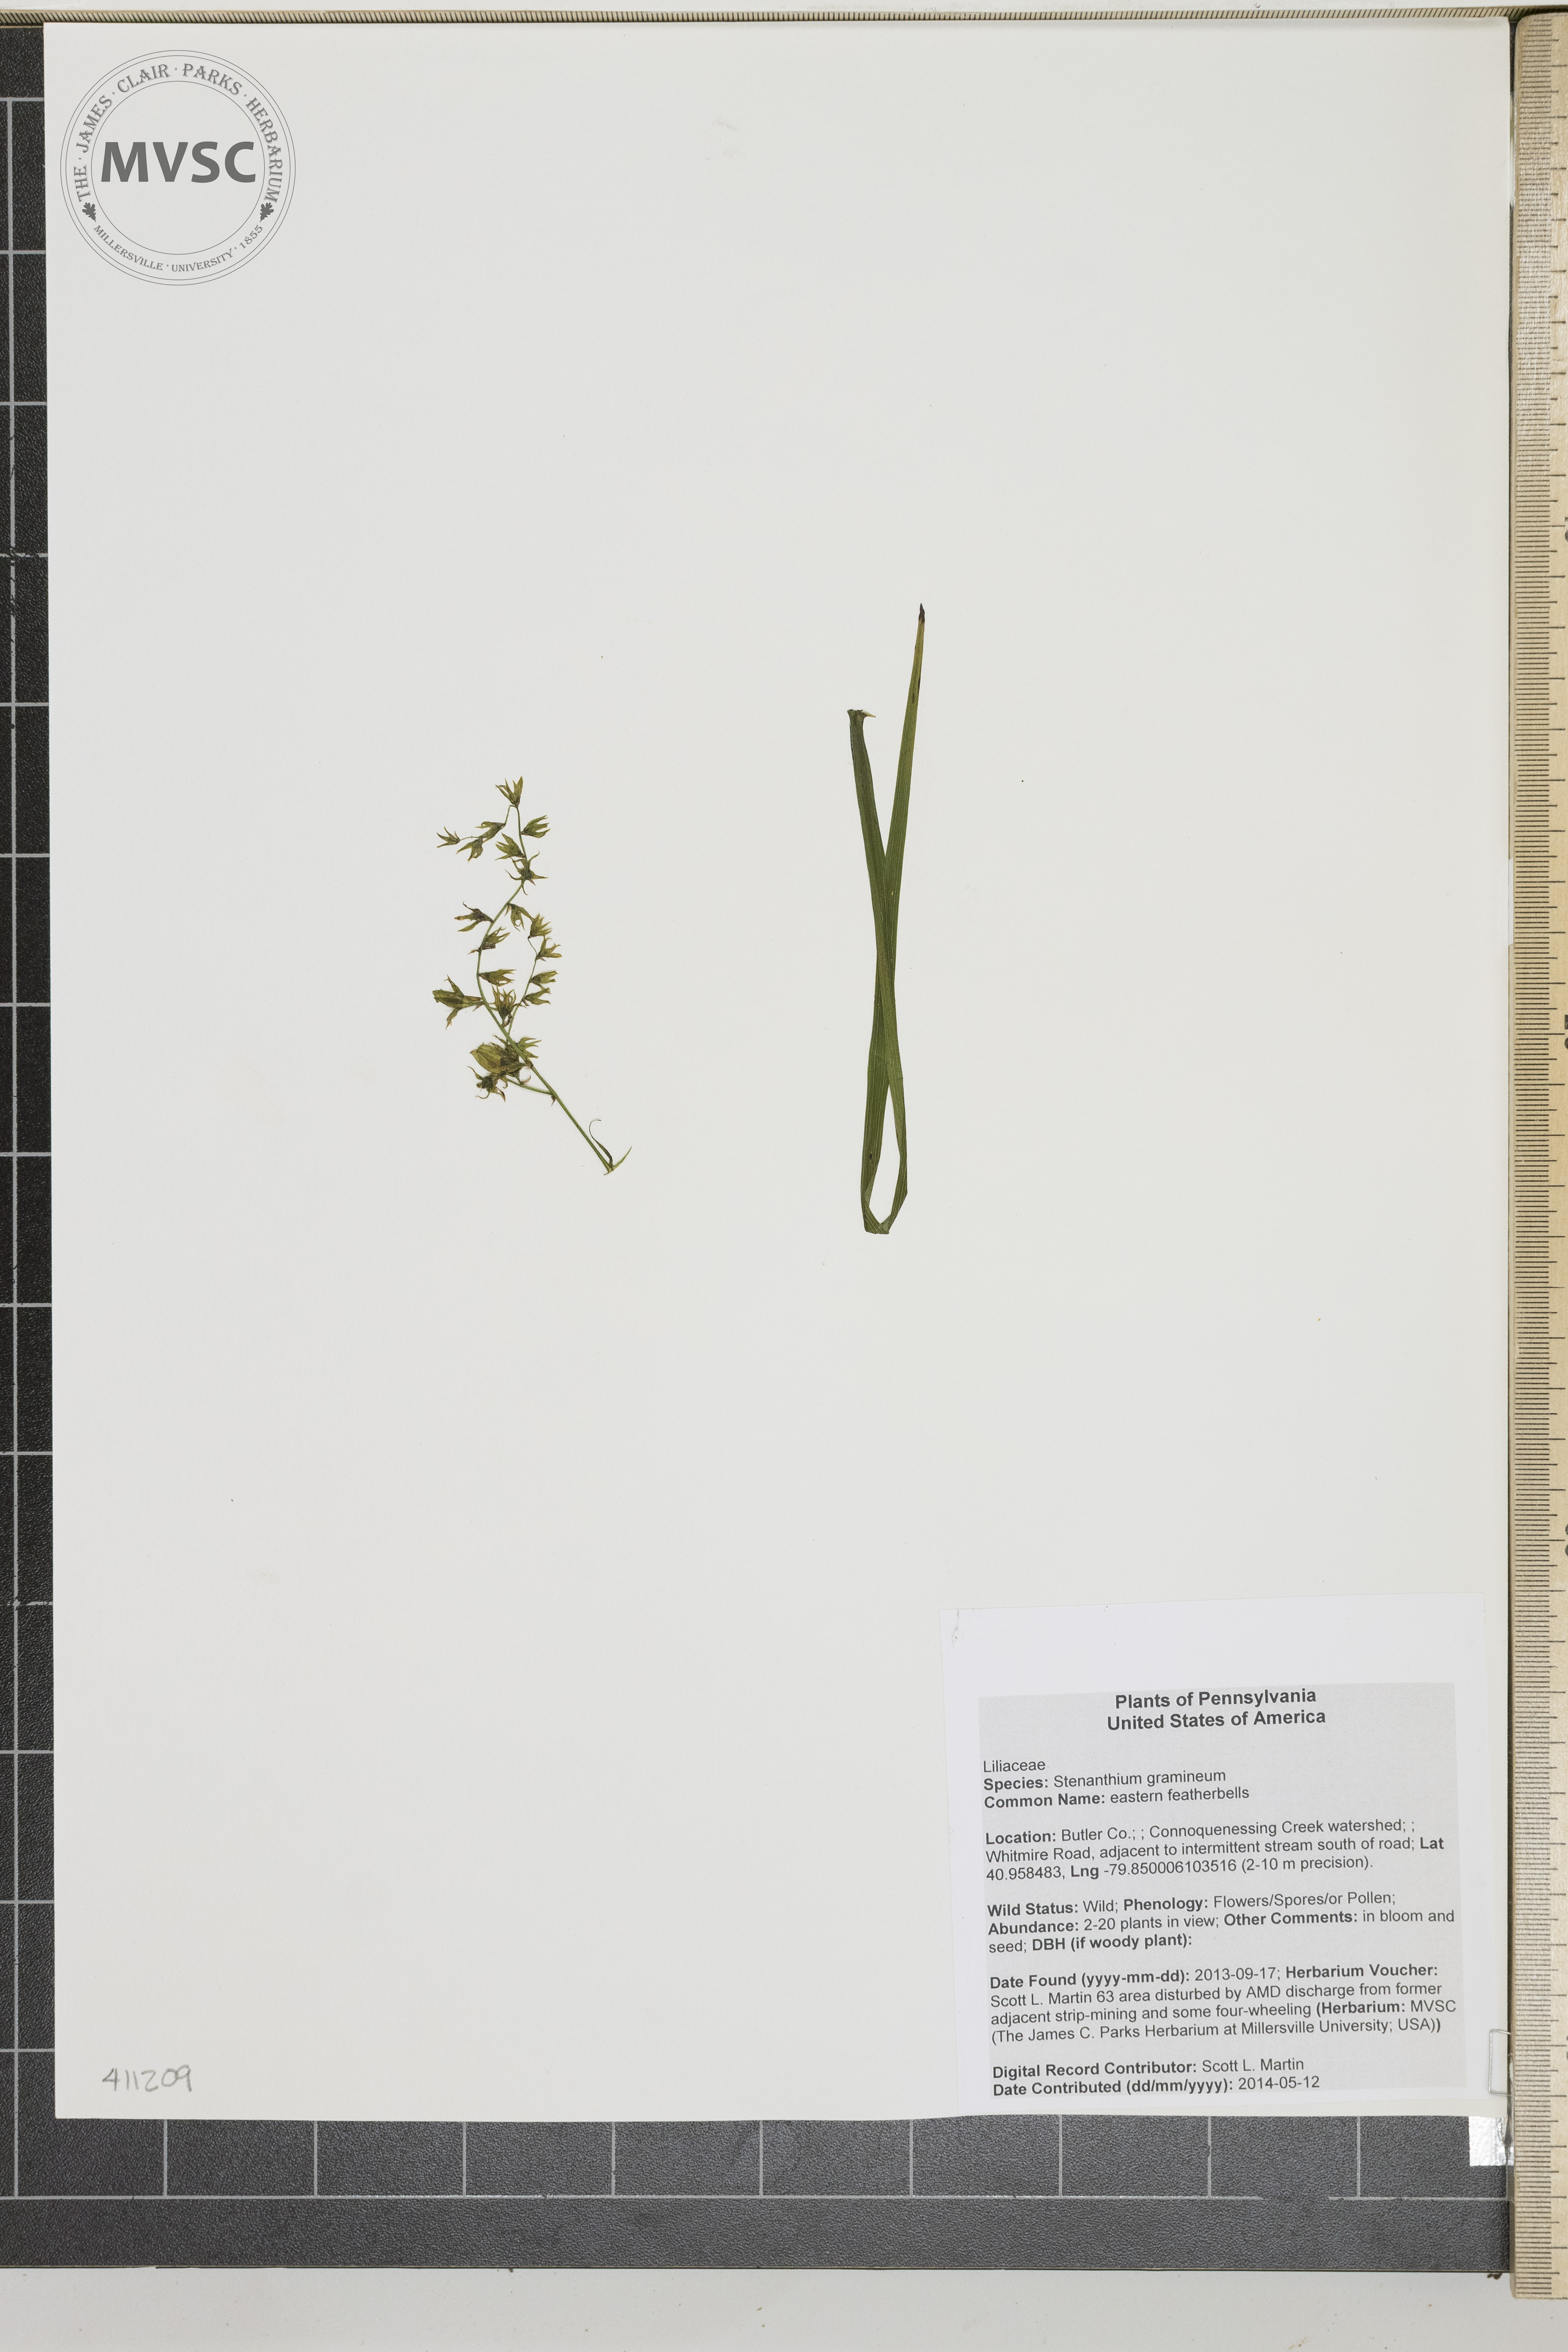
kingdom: Plantae
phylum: Tracheophyta
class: Liliopsida
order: Liliales
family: Melanthiaceae
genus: Stenanthium
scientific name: Stenanthium gramineum
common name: eastern featherbells
